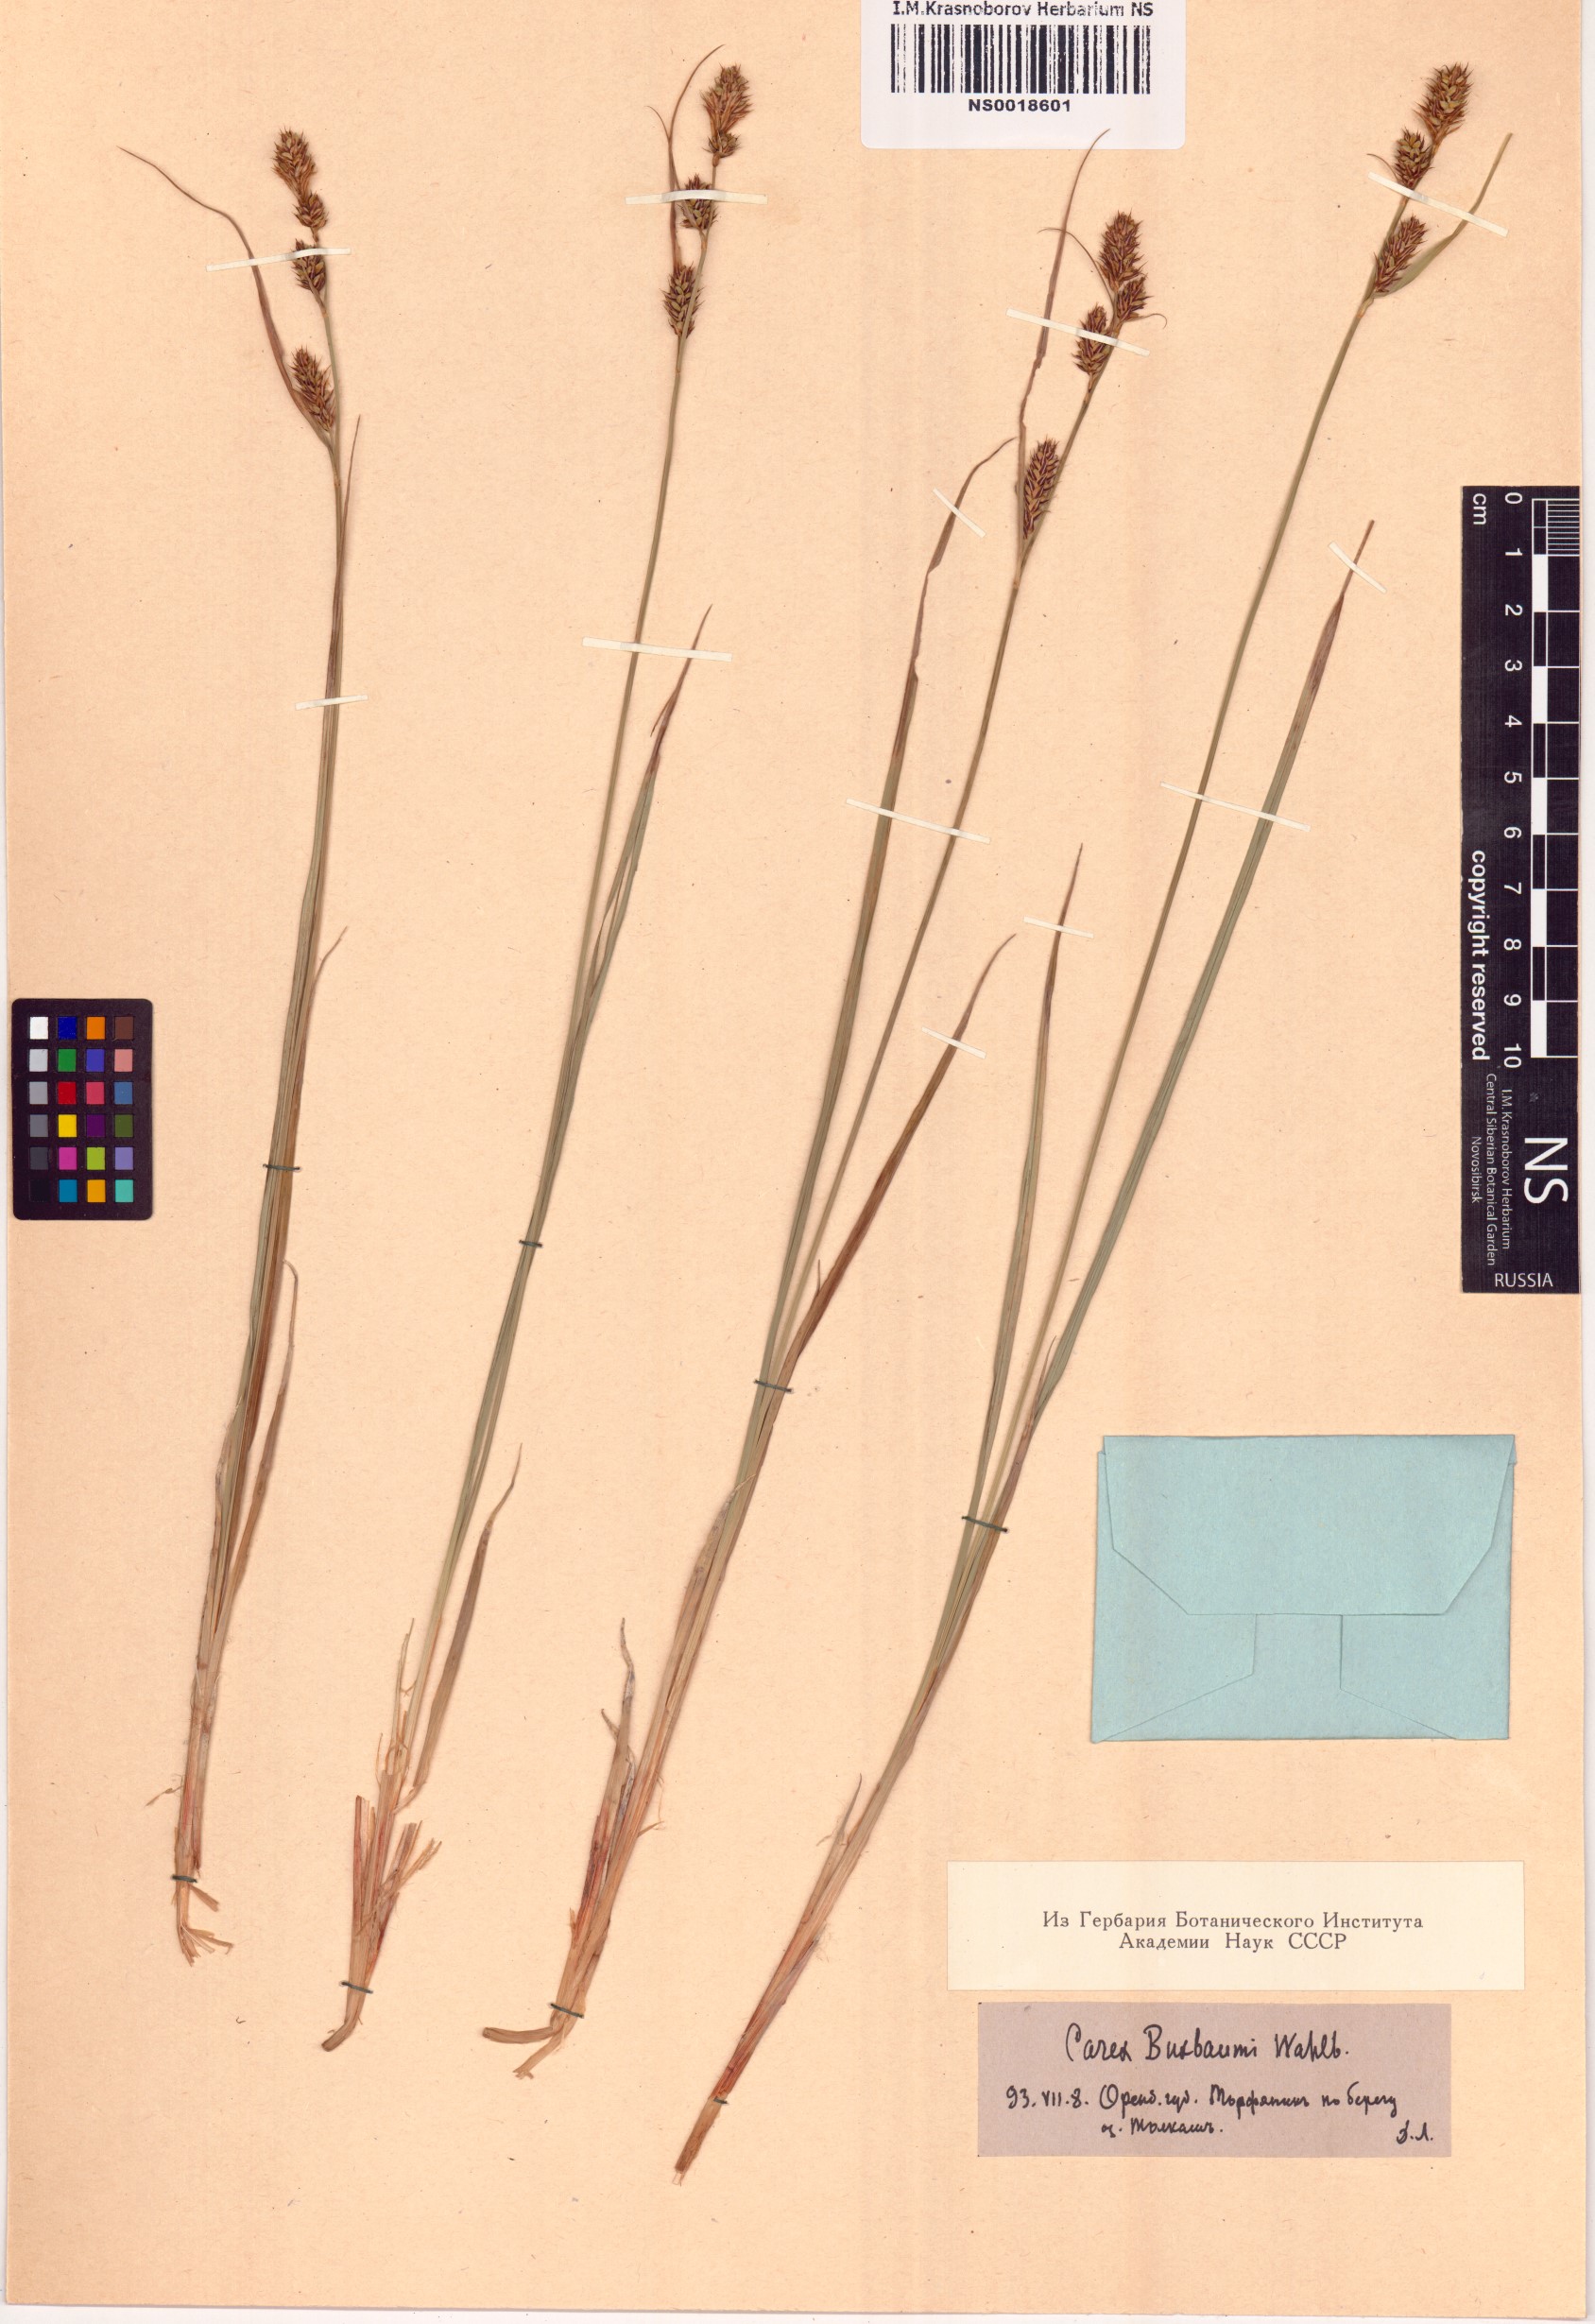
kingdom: Plantae
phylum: Tracheophyta
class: Liliopsida
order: Poales
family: Cyperaceae
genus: Carex
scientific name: Carex buxbaumii
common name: Club sedge
